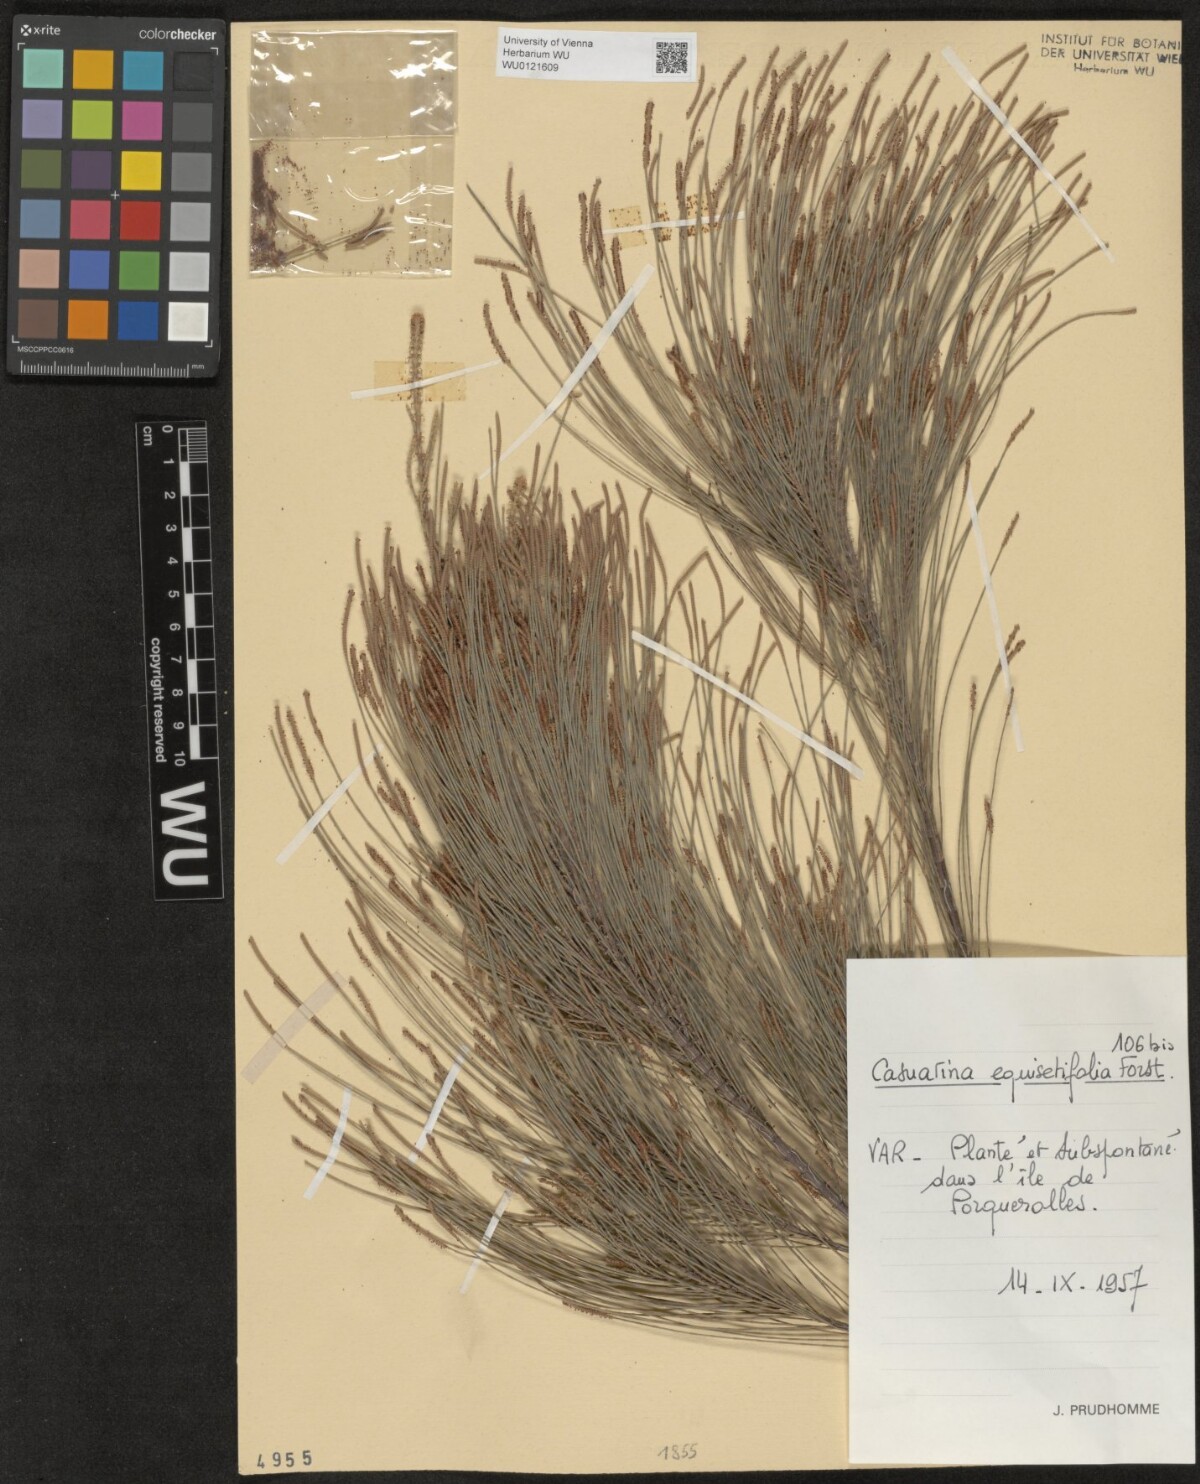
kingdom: Plantae
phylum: Tracheophyta
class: Magnoliopsida
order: Fagales
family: Casuarinaceae
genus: Casuarina
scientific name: Casuarina equisetifolia
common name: Beach sheoak
